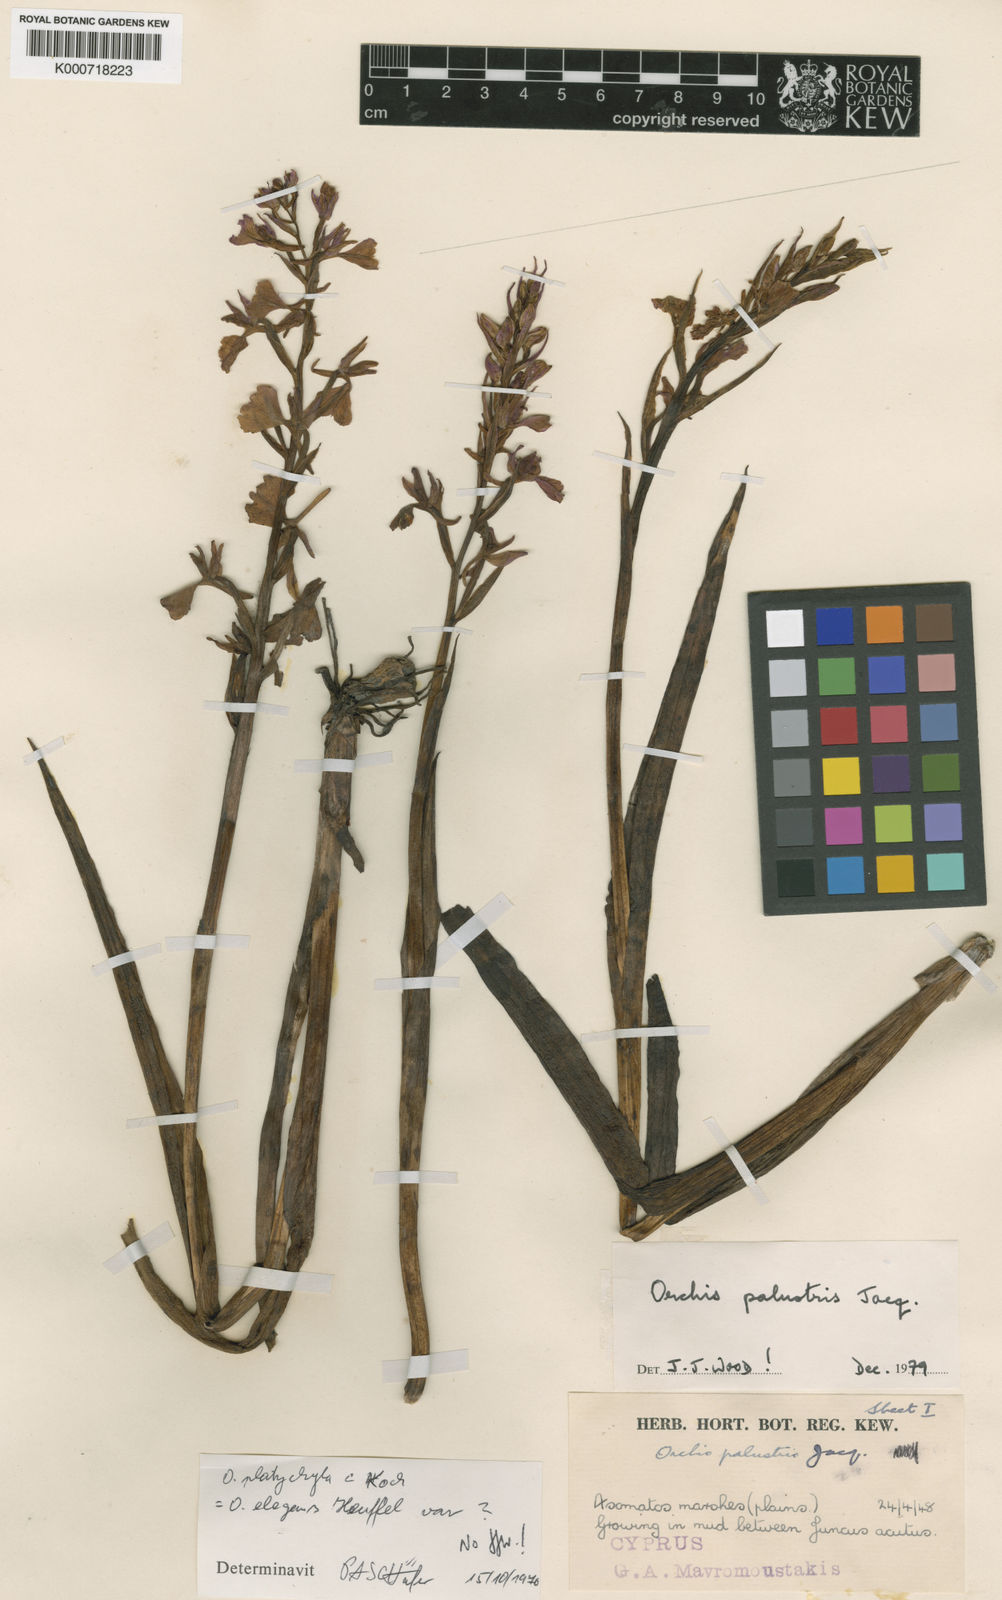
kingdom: Plantae
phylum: Tracheophyta
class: Liliopsida
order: Asparagales
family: Orchidaceae
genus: Anacamptis
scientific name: Anacamptis palustris
